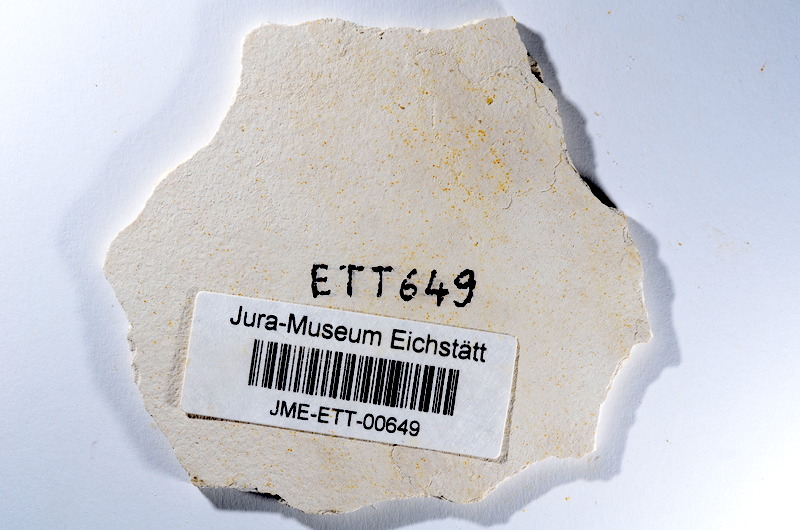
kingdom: Animalia
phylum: Chordata
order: Salmoniformes
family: Orthogonikleithridae
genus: Orthogonikleithrus
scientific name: Orthogonikleithrus hoelli
